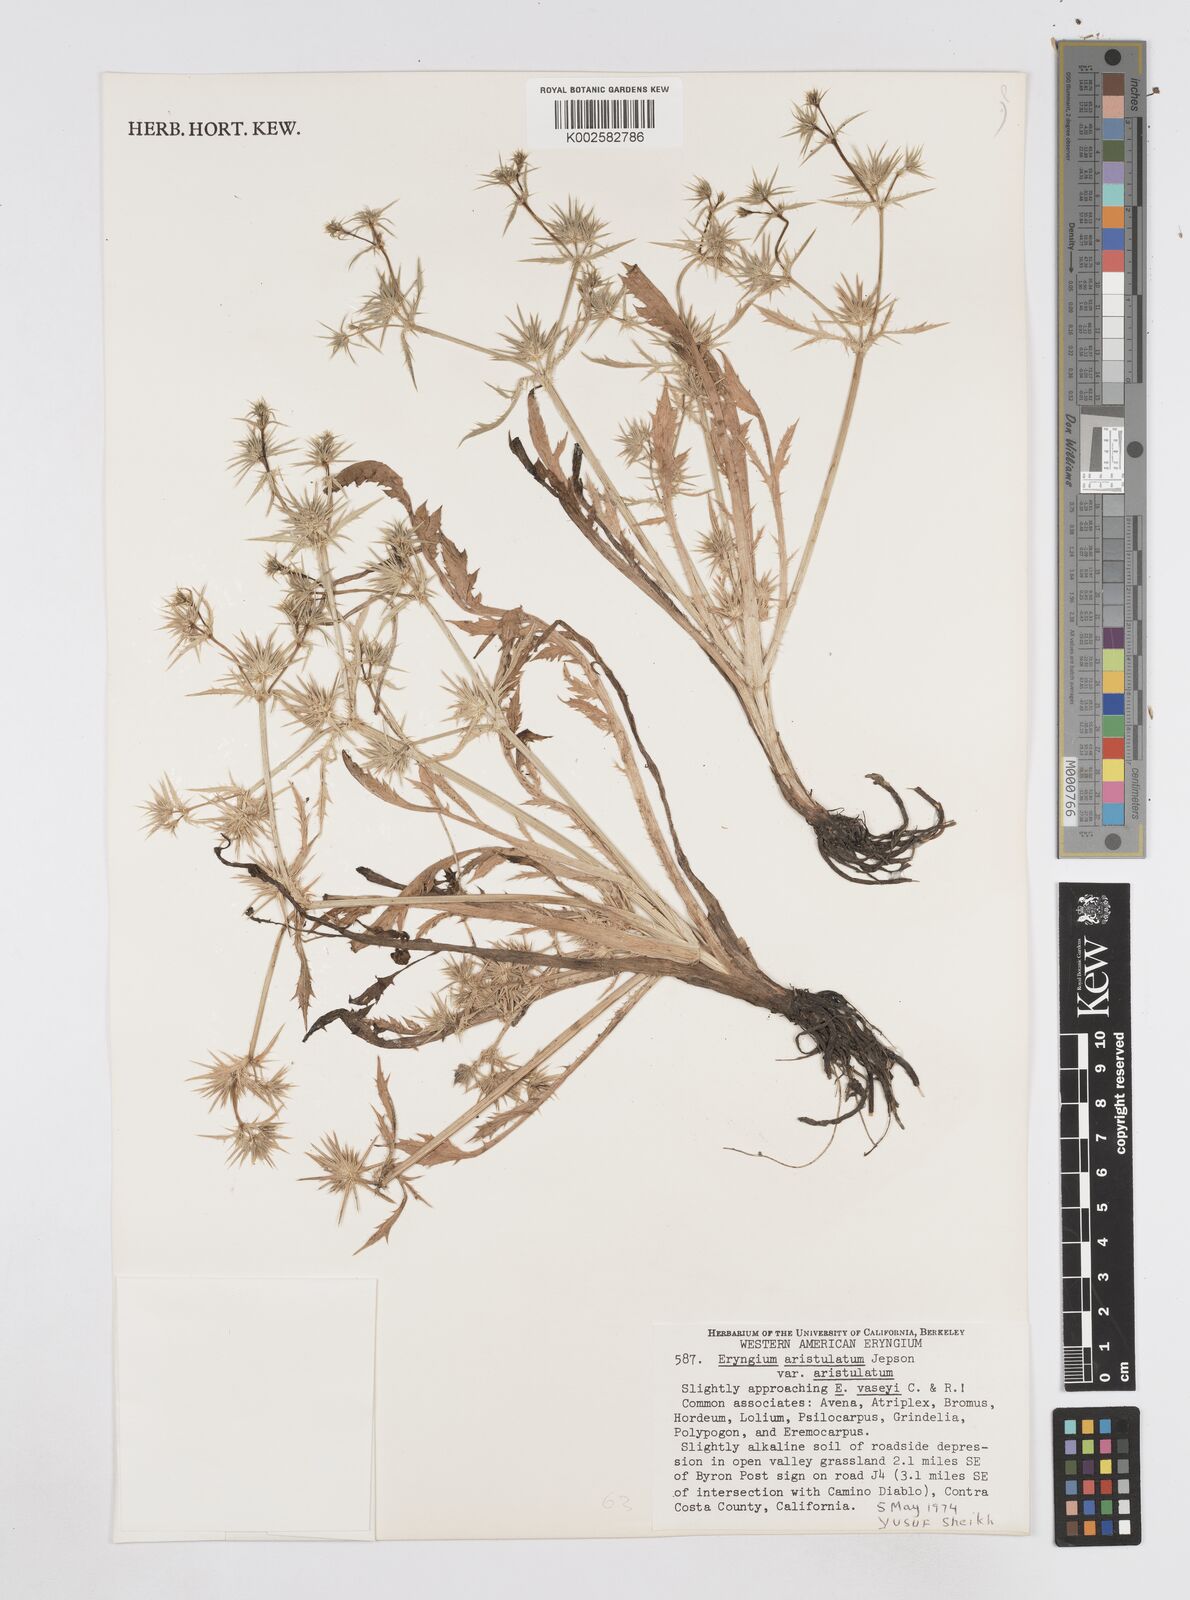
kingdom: Plantae
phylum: Tracheophyta
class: Magnoliopsida
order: Apiales
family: Apiaceae
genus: Eryngium
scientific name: Eryngium aristulatum
